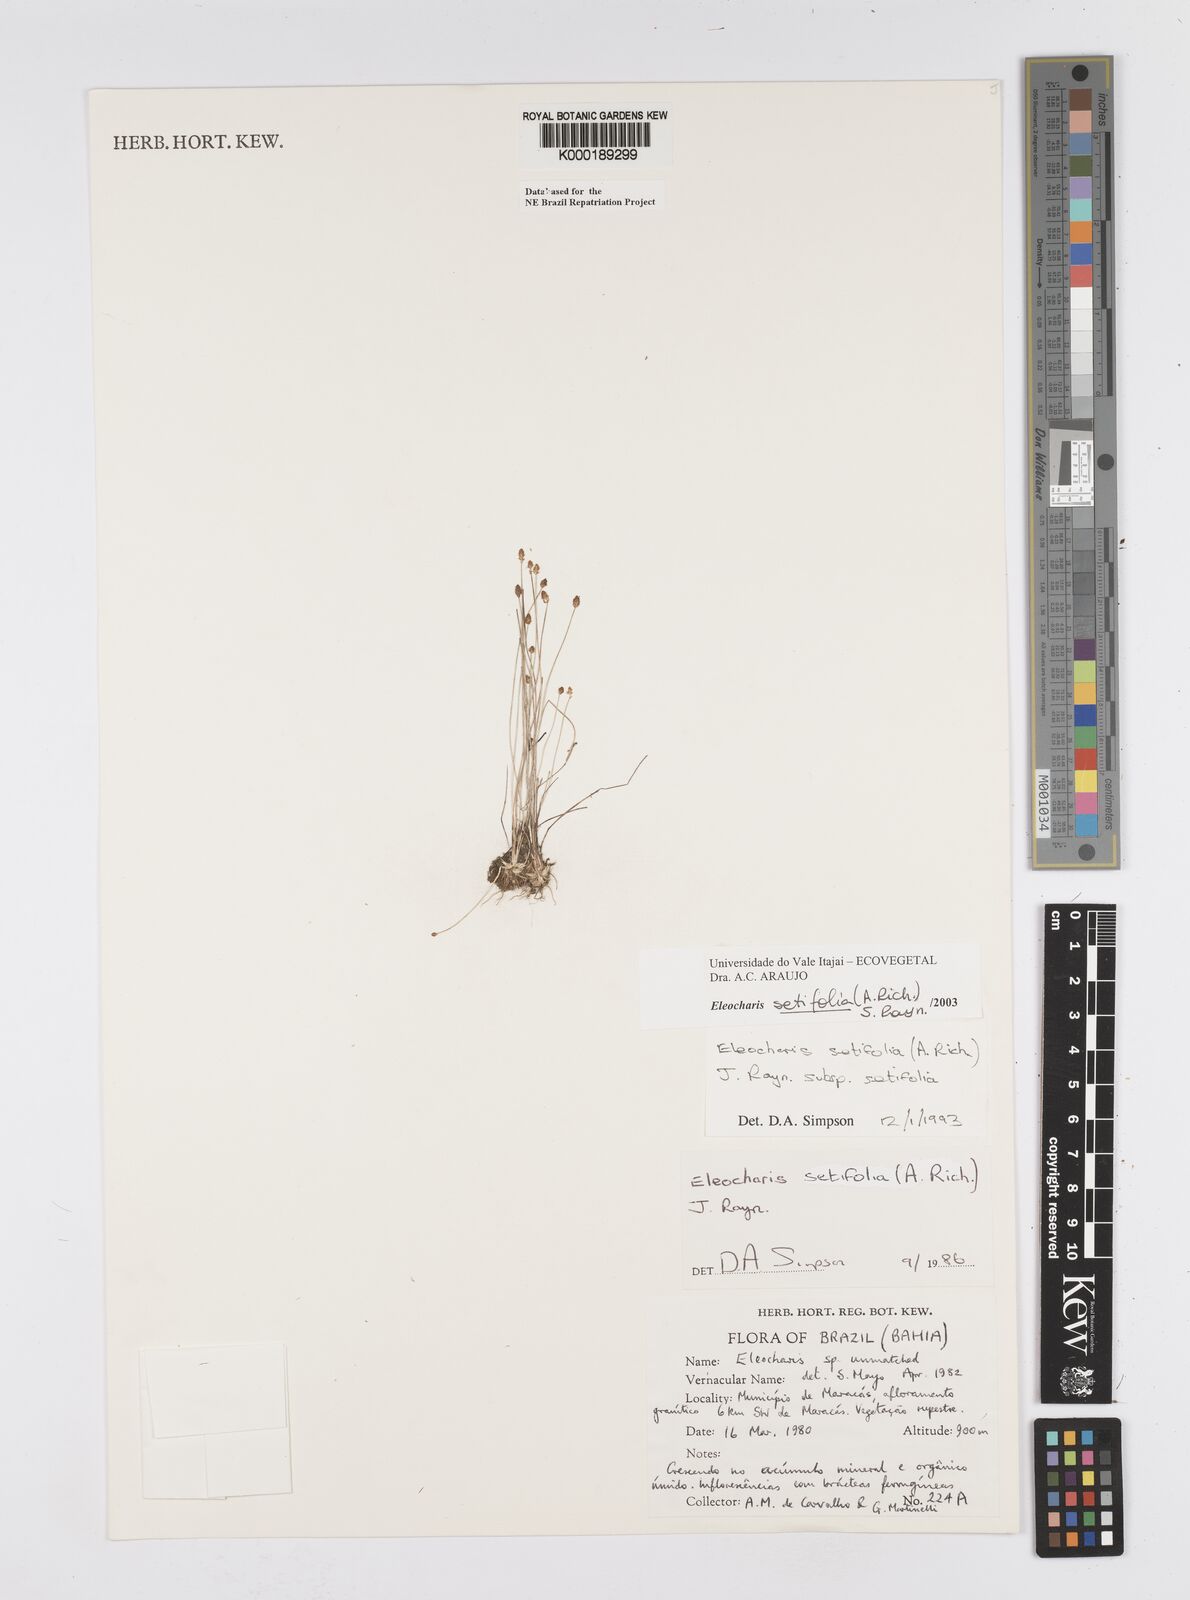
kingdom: Plantae
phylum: Tracheophyta
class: Liliopsida
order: Poales
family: Cyperaceae
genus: Eleocharis
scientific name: Eleocharis setifolia
